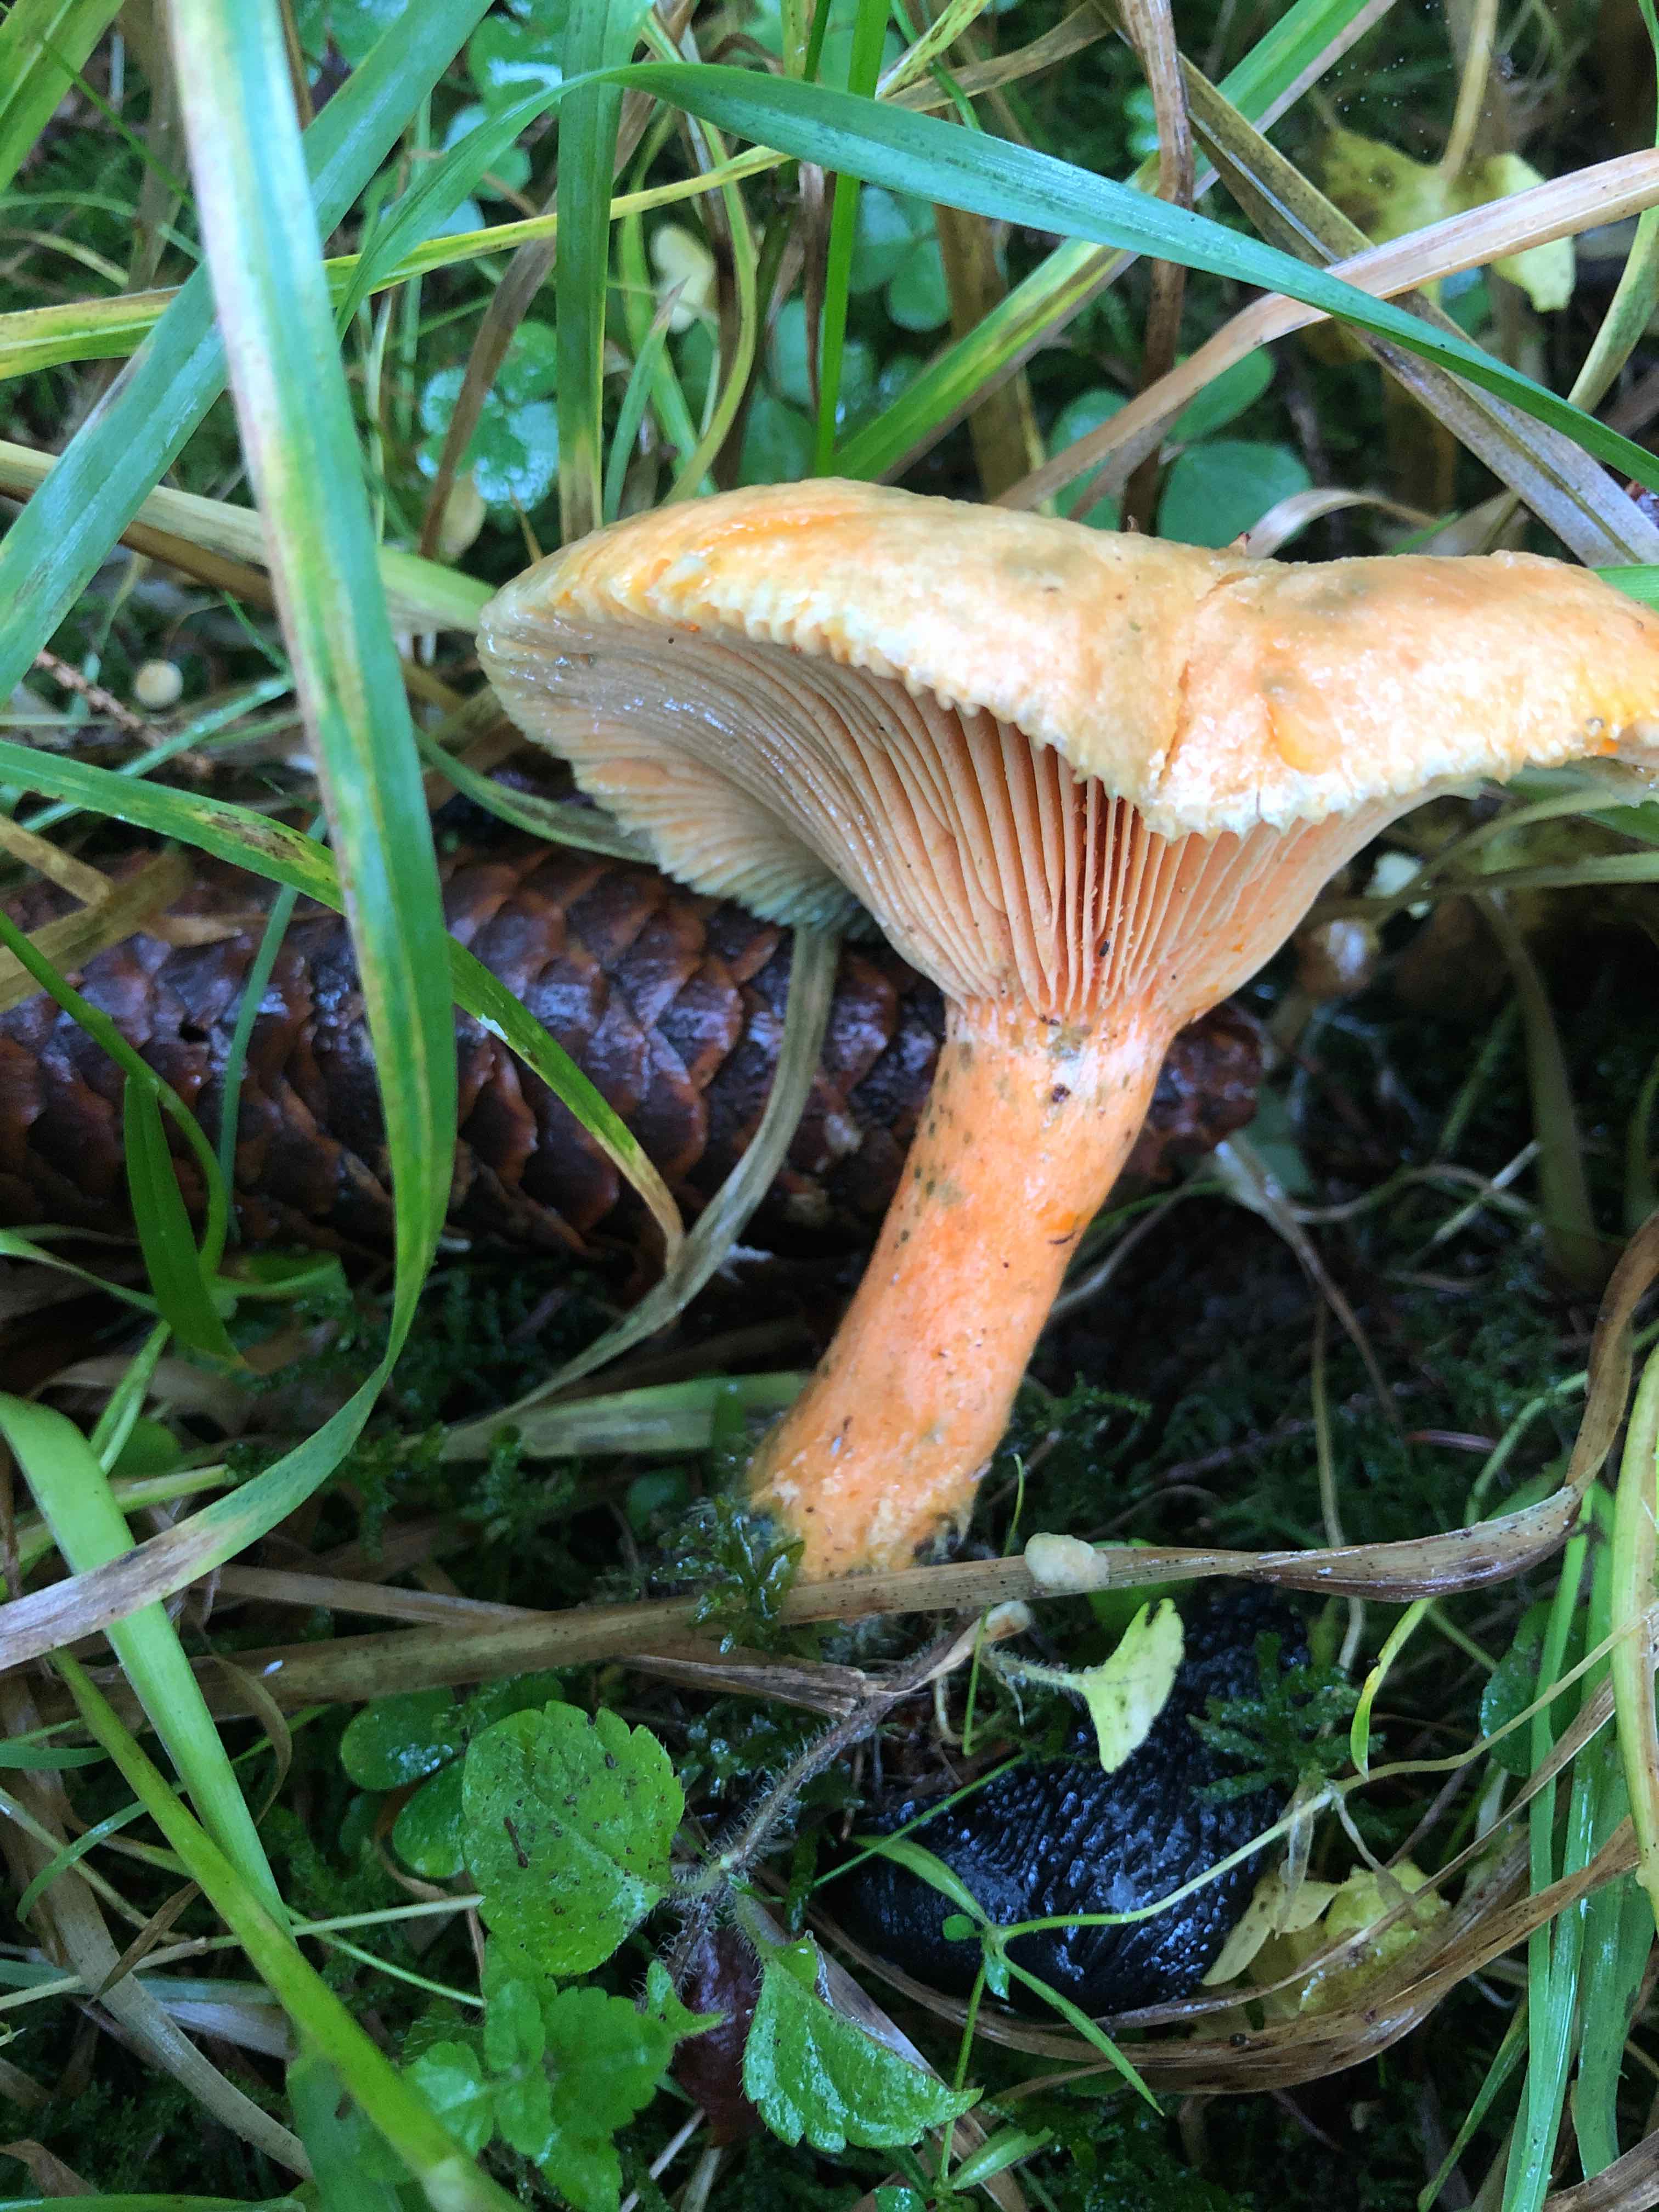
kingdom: Fungi
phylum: Basidiomycota
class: Agaricomycetes
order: Russulales
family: Russulaceae
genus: Lactarius
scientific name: Lactarius deterrimus
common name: gran-mælkehat
